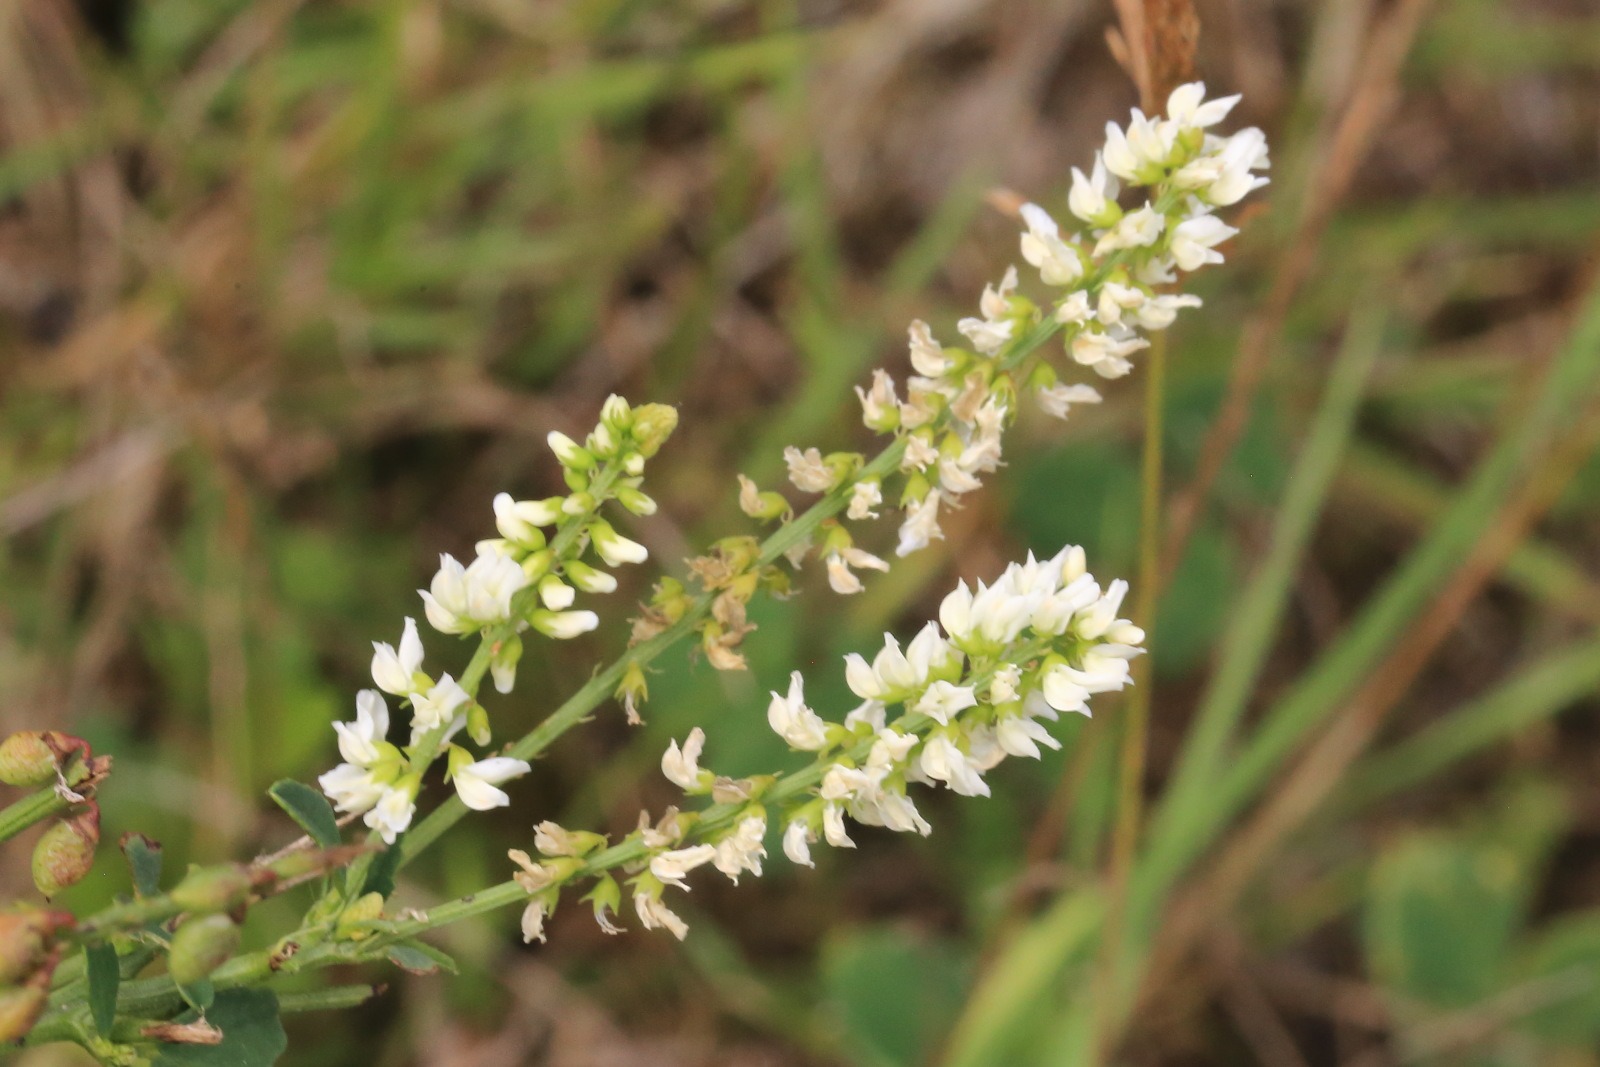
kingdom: Plantae
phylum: Tracheophyta
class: Magnoliopsida
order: Fabales
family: Fabaceae
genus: Melilotus
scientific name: Melilotus albus
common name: Hvid stenkløver
